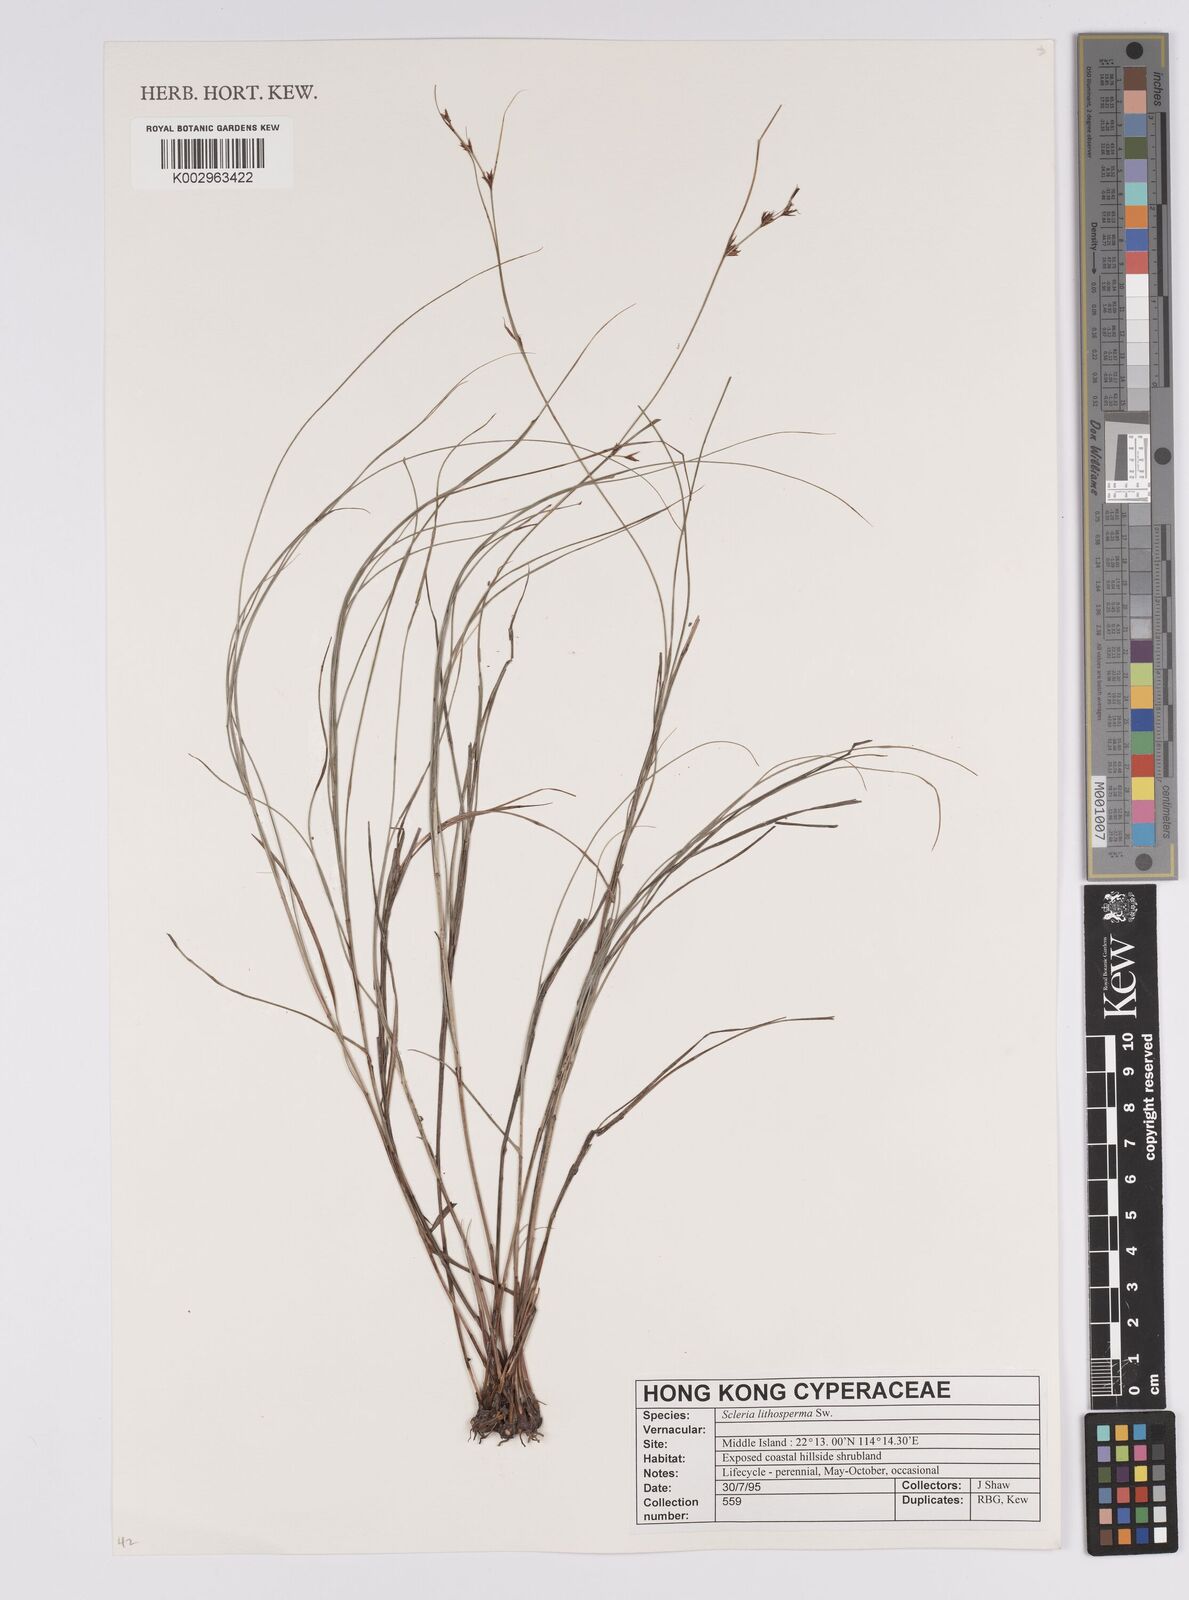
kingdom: Plantae
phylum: Tracheophyta
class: Liliopsida
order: Poales
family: Cyperaceae
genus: Scleria
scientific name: Scleria lithosperma
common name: Florida keys nut-rush
